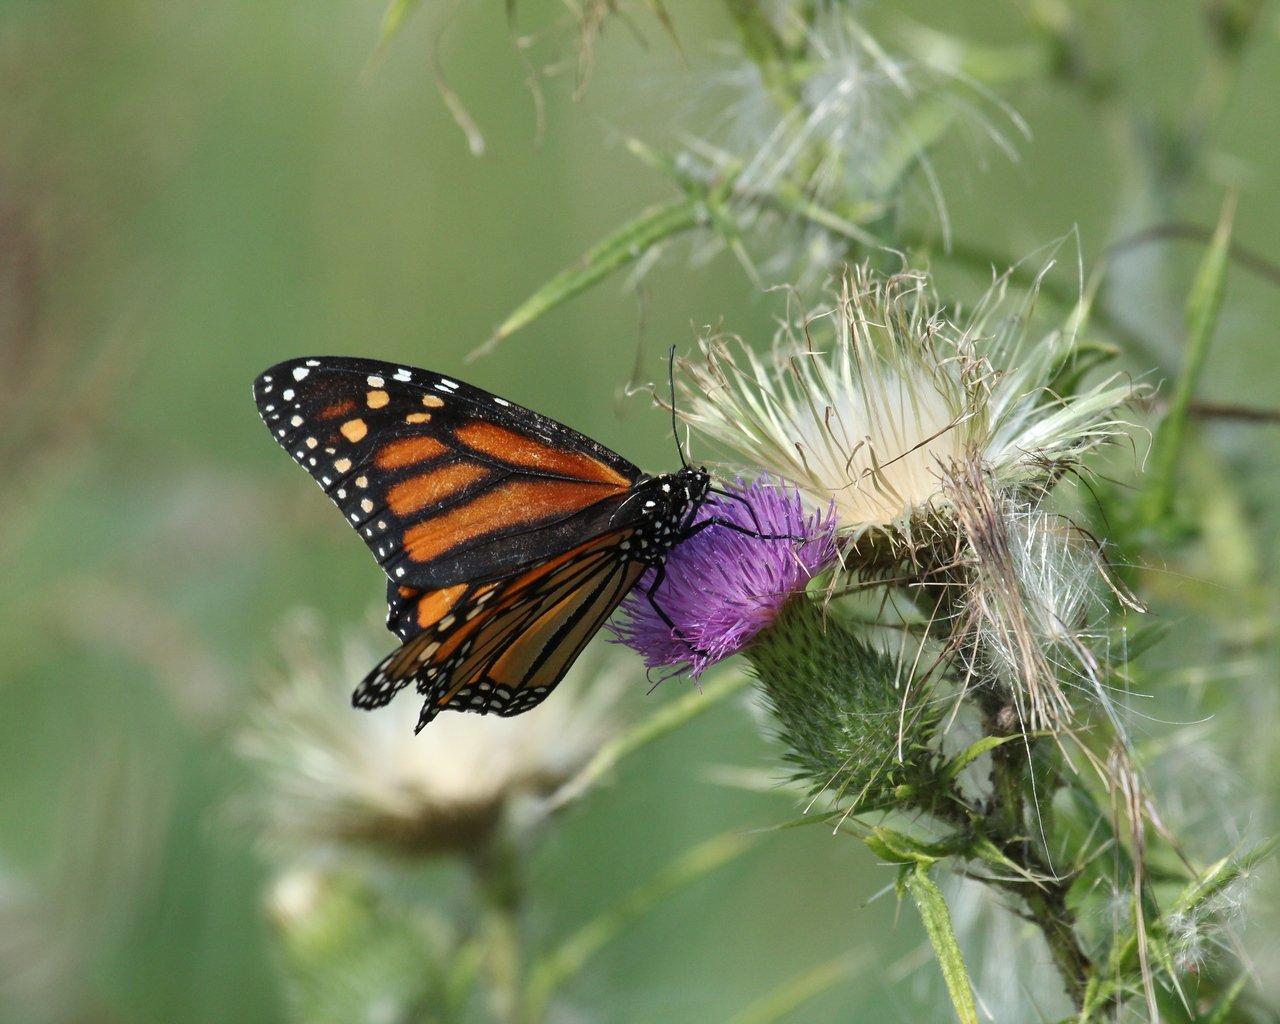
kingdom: Animalia
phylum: Arthropoda
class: Insecta
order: Lepidoptera
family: Nymphalidae
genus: Danaus
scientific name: Danaus plexippus
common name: Monarch
